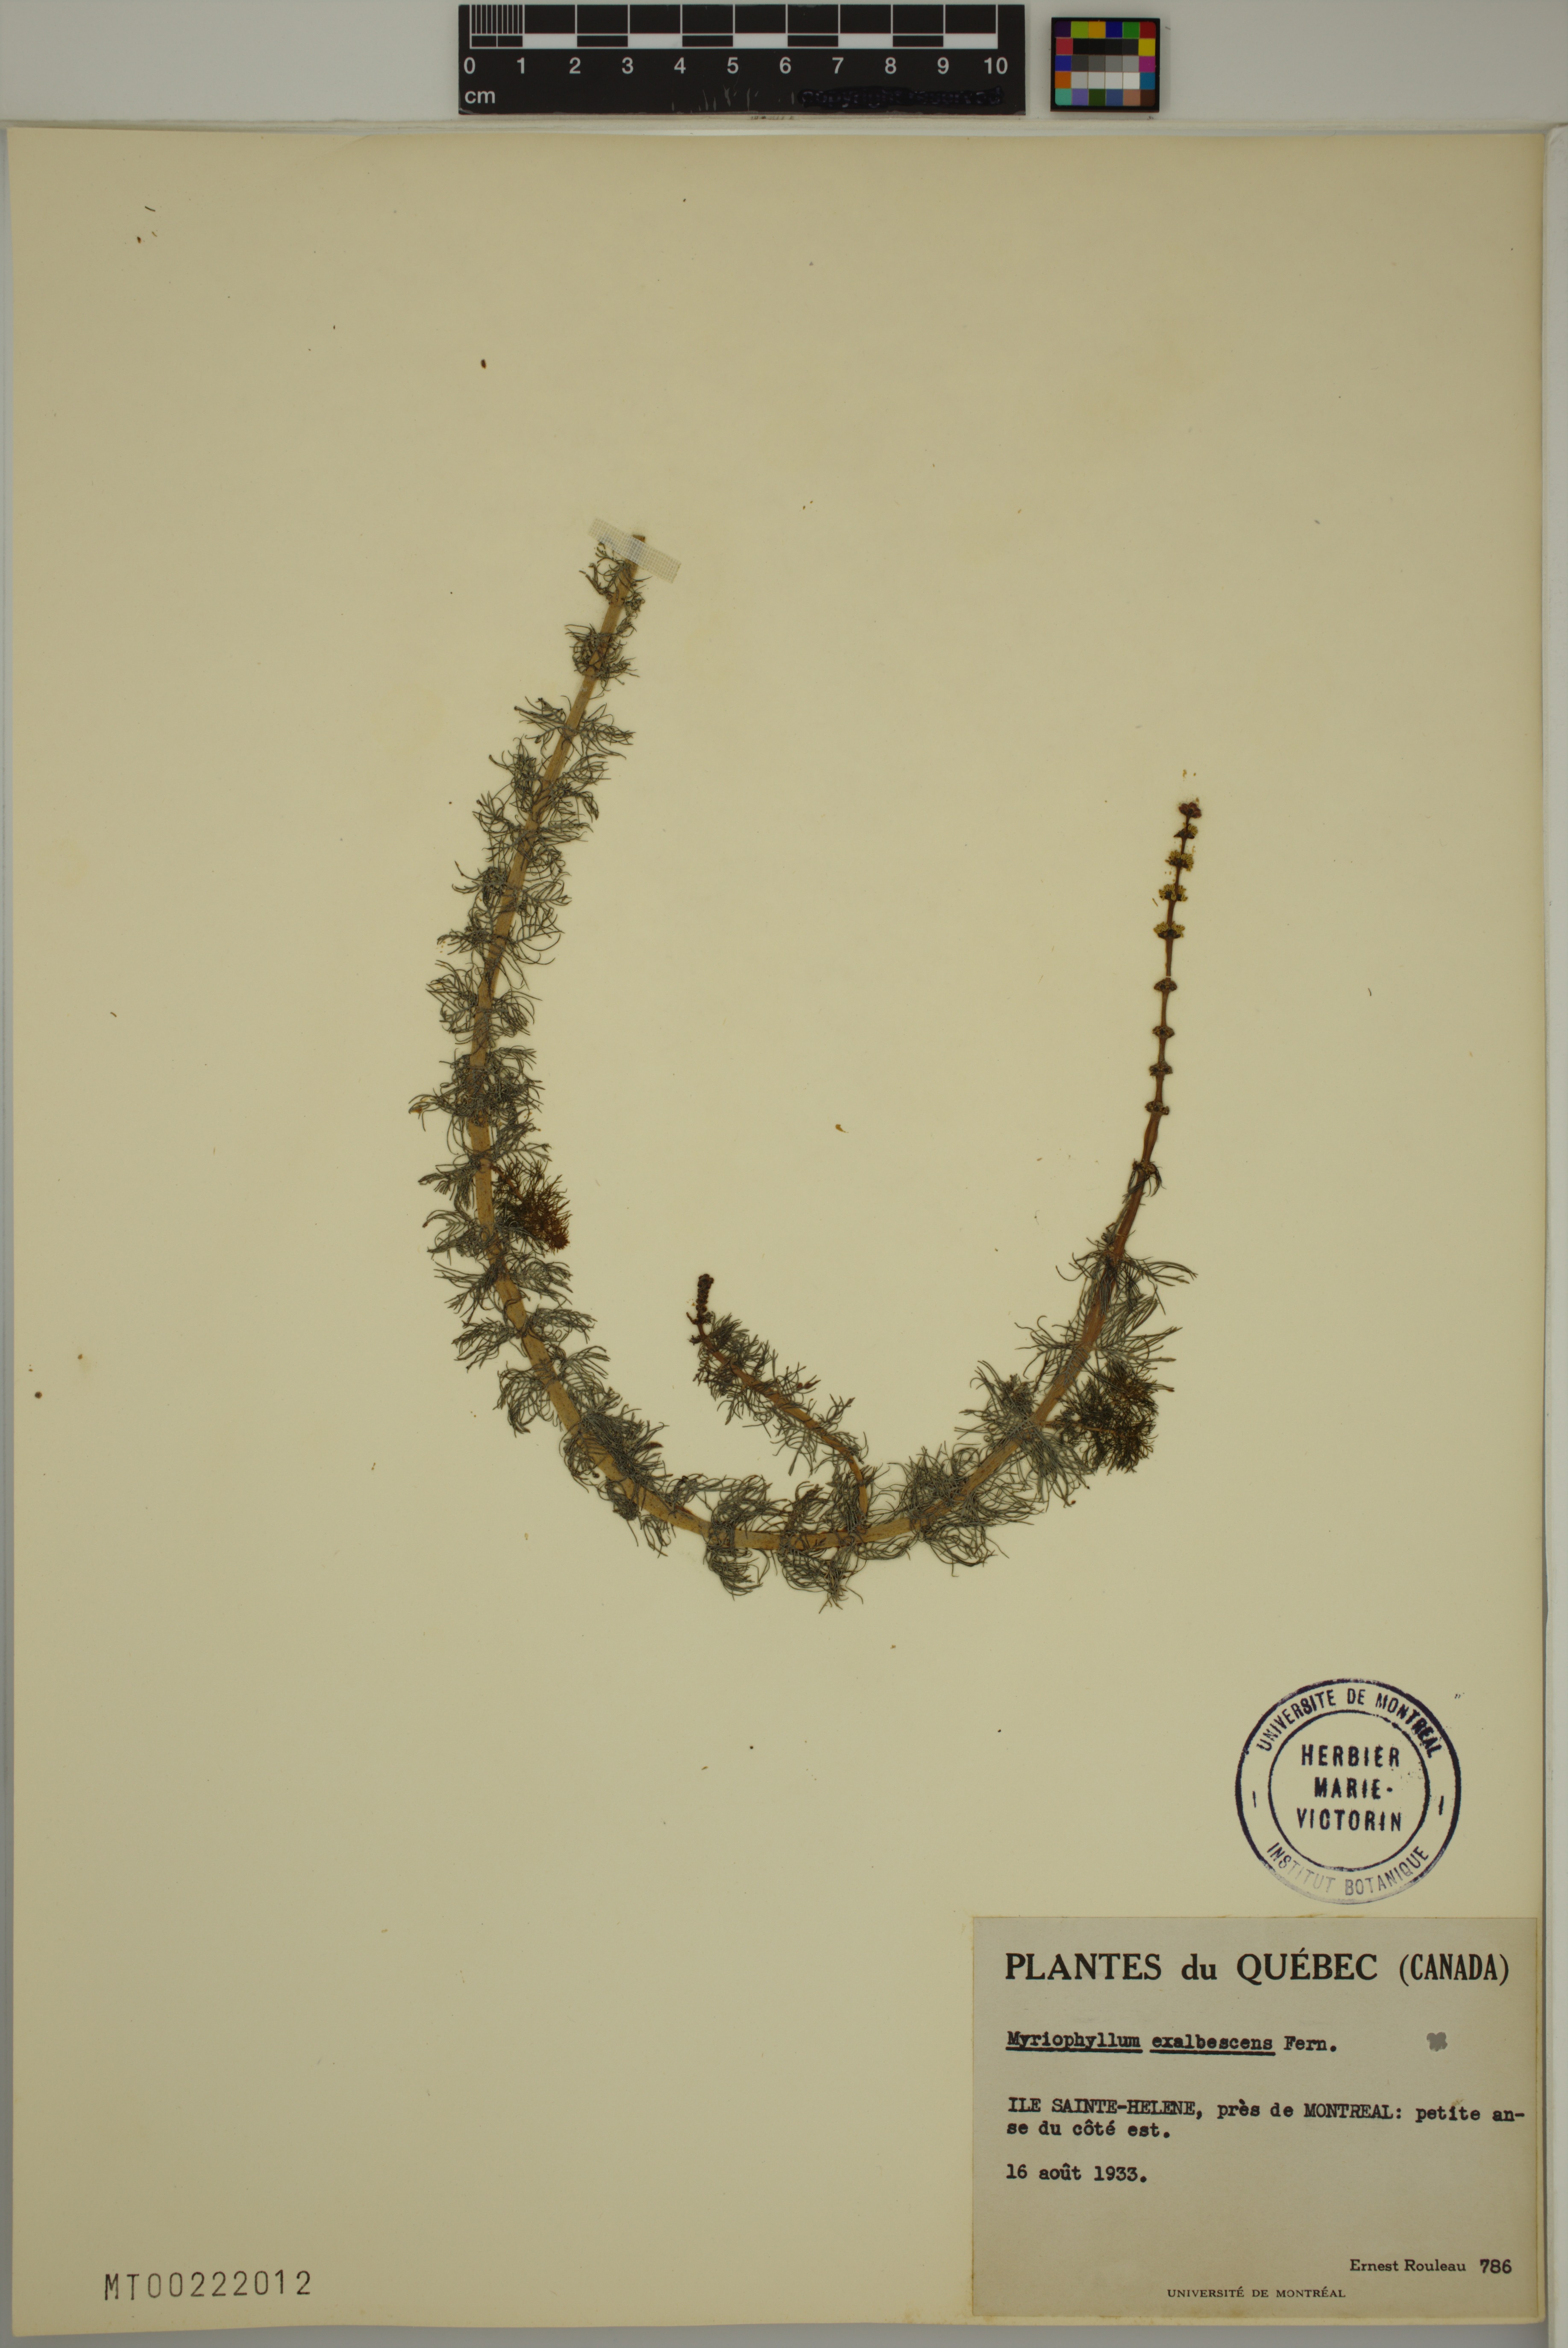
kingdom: Plantae
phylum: Tracheophyta
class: Magnoliopsida
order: Saxifragales
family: Haloragaceae
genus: Myriophyllum
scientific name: Myriophyllum sibiricum
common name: Siberian water-milfoil
